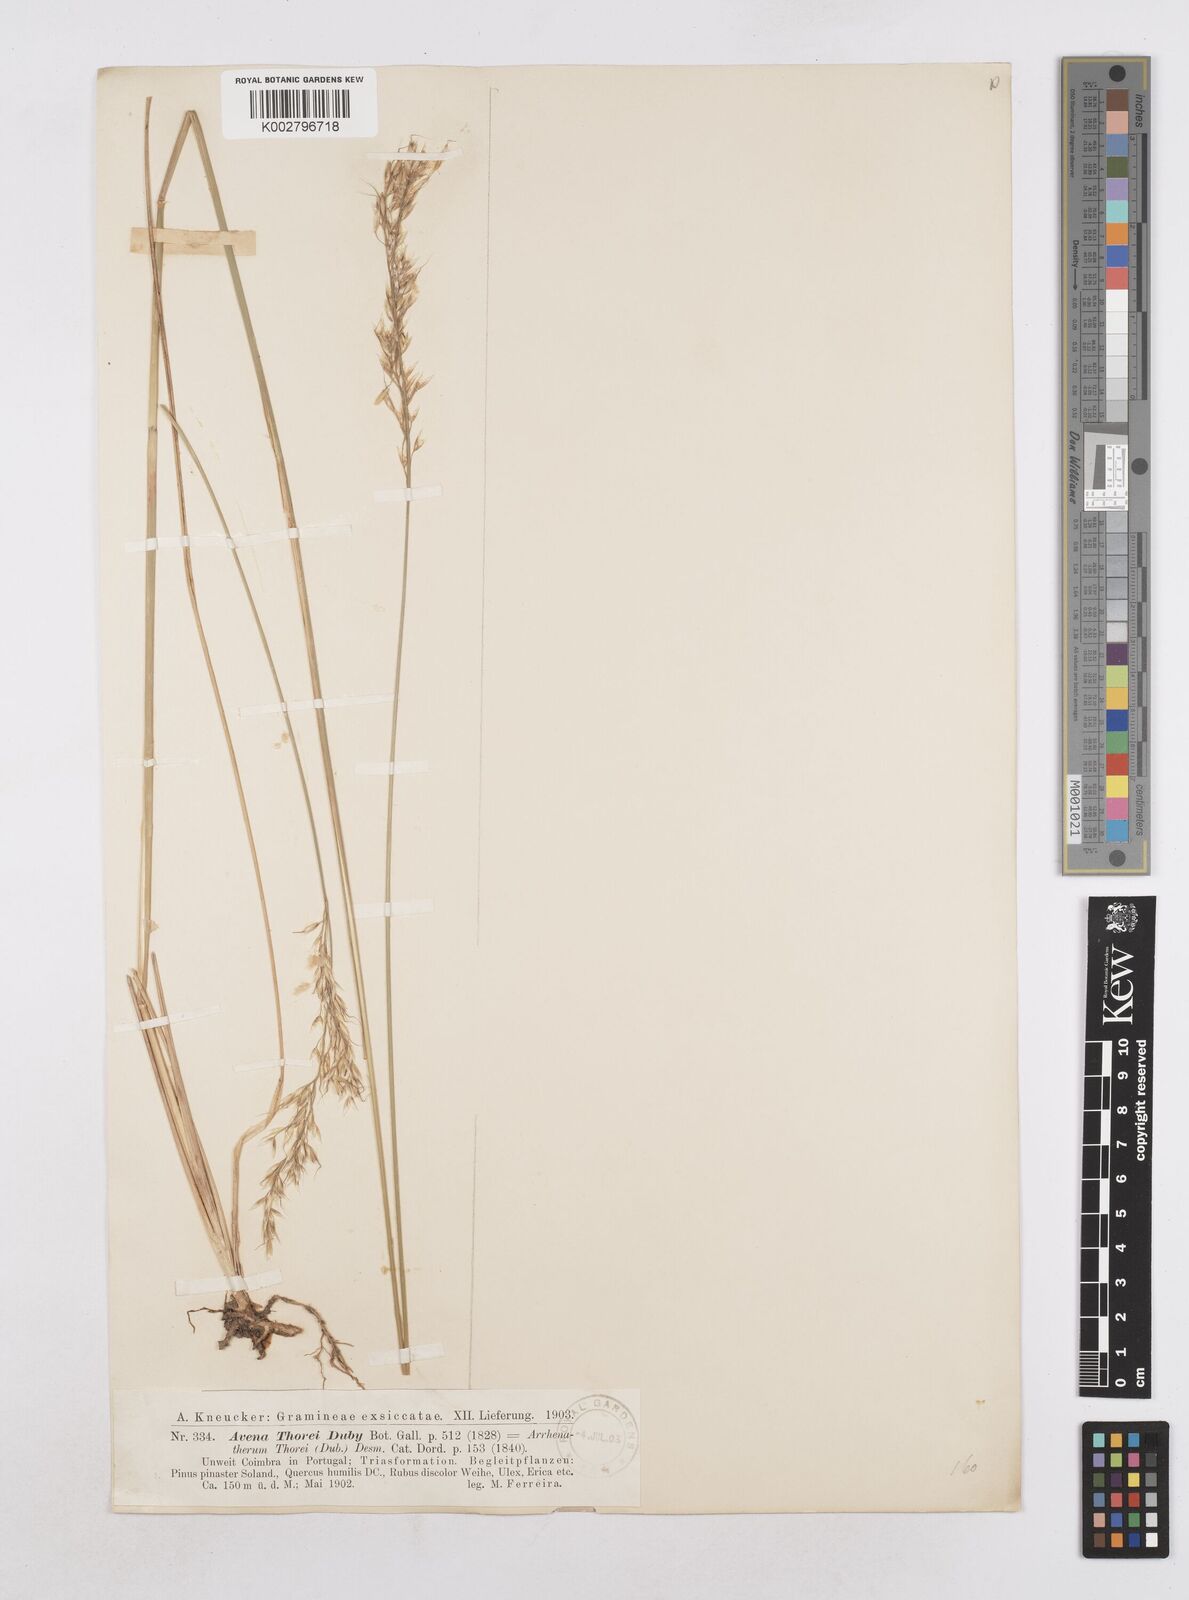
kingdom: Plantae
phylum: Tracheophyta
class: Liliopsida
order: Poales
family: Poaceae
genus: Arrhenatherum
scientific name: Arrhenatherum longifolium
